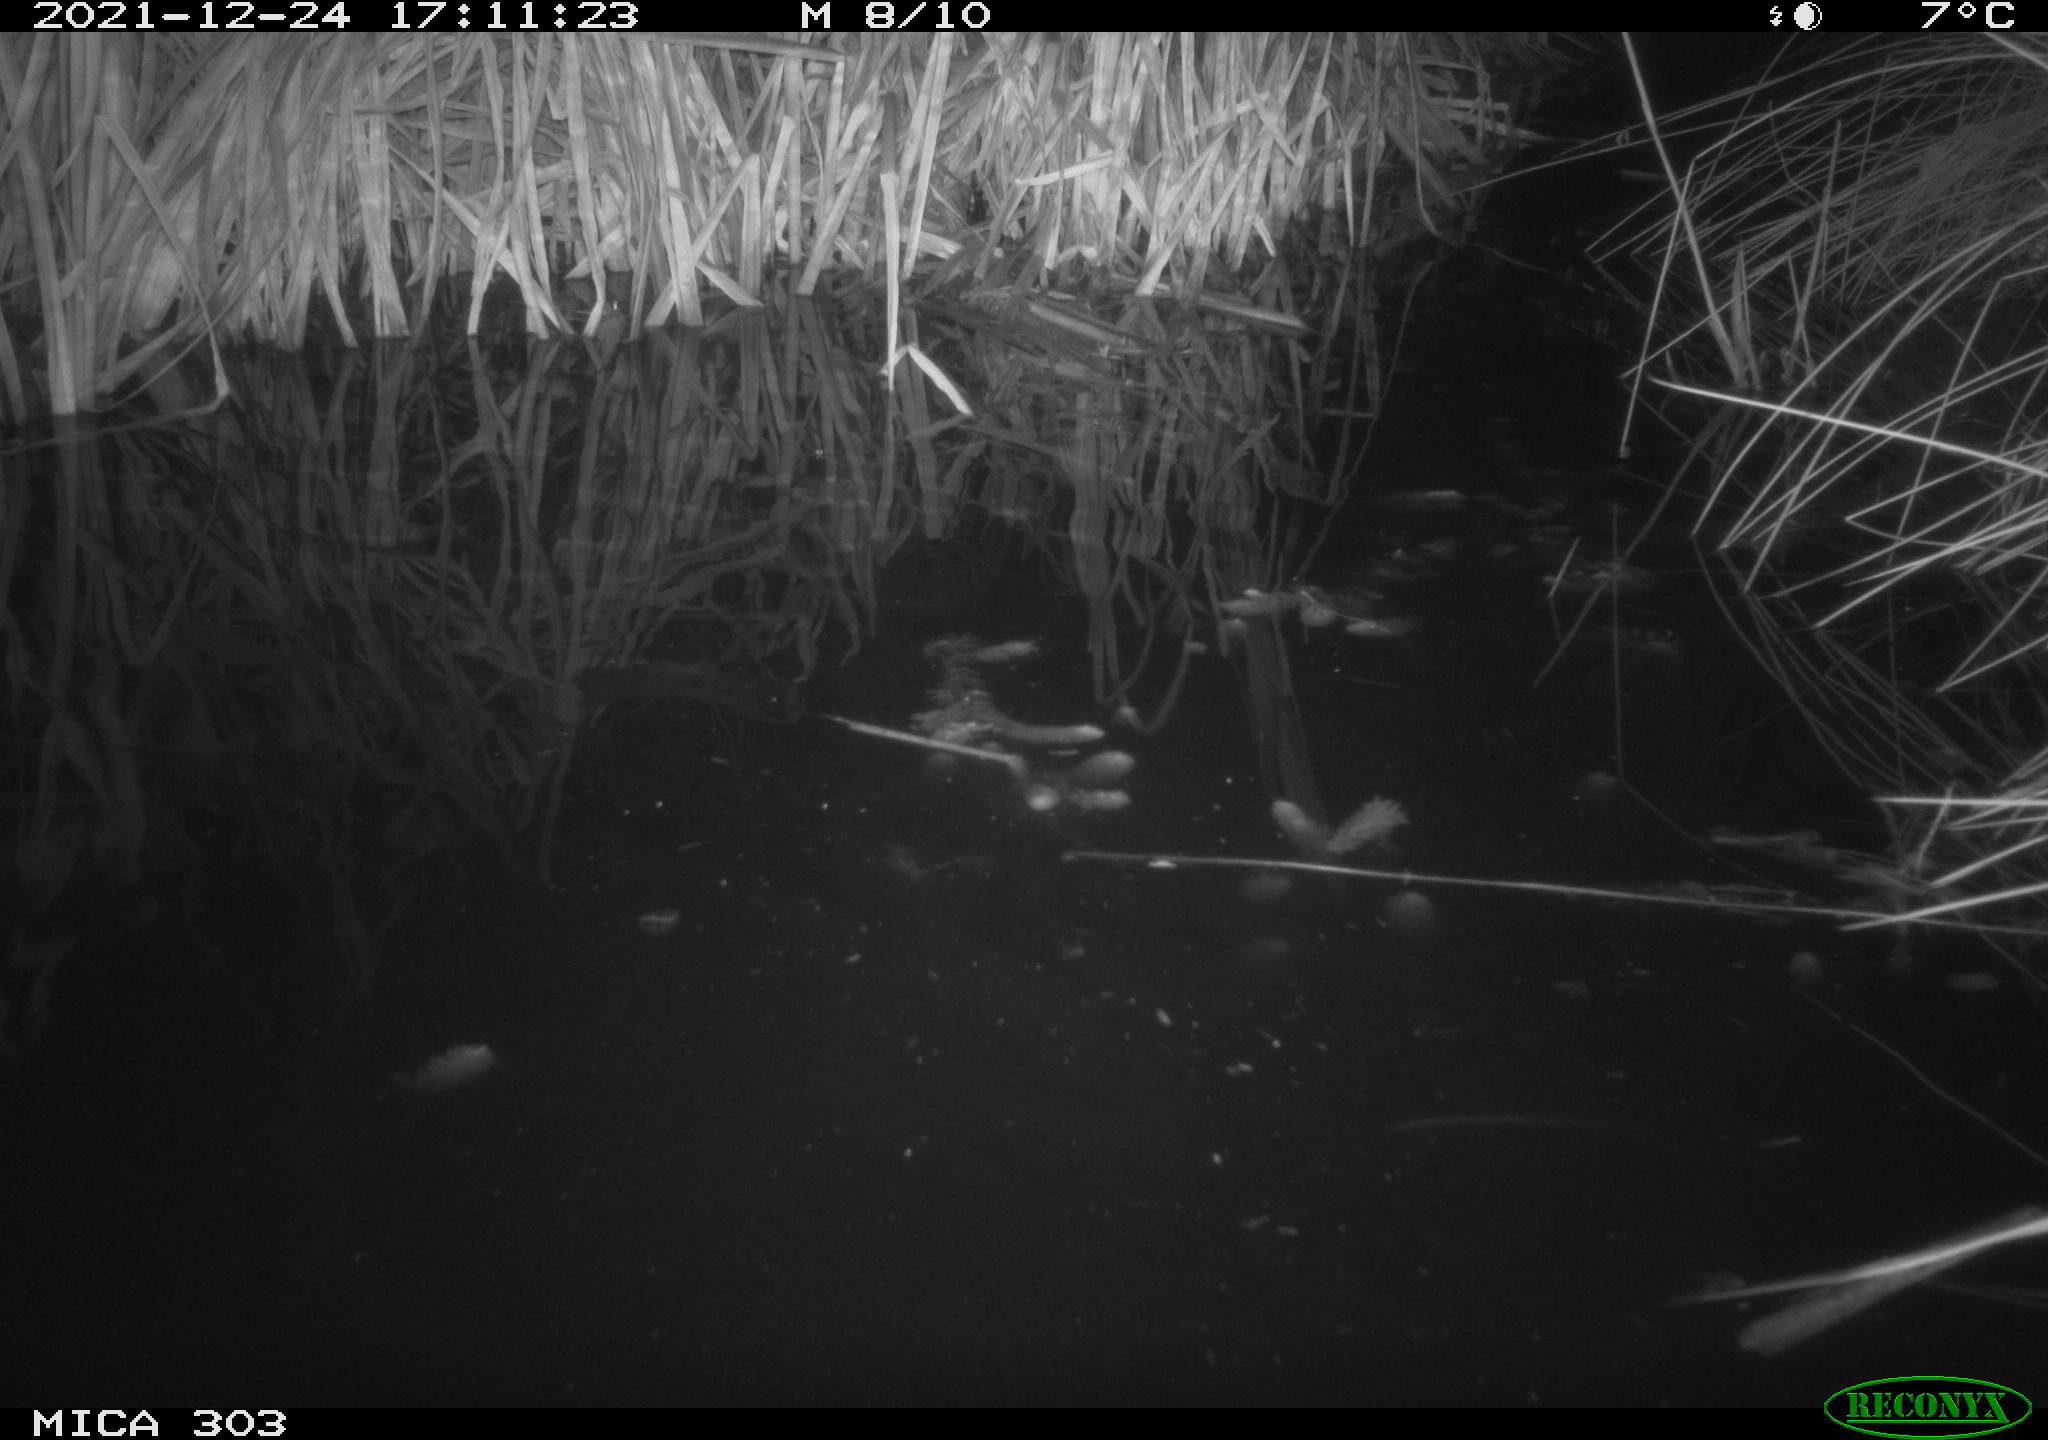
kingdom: Animalia
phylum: Chordata
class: Aves
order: Gruiformes
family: Rallidae
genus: Gallinula
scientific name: Gallinula chloropus
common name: Common moorhen
